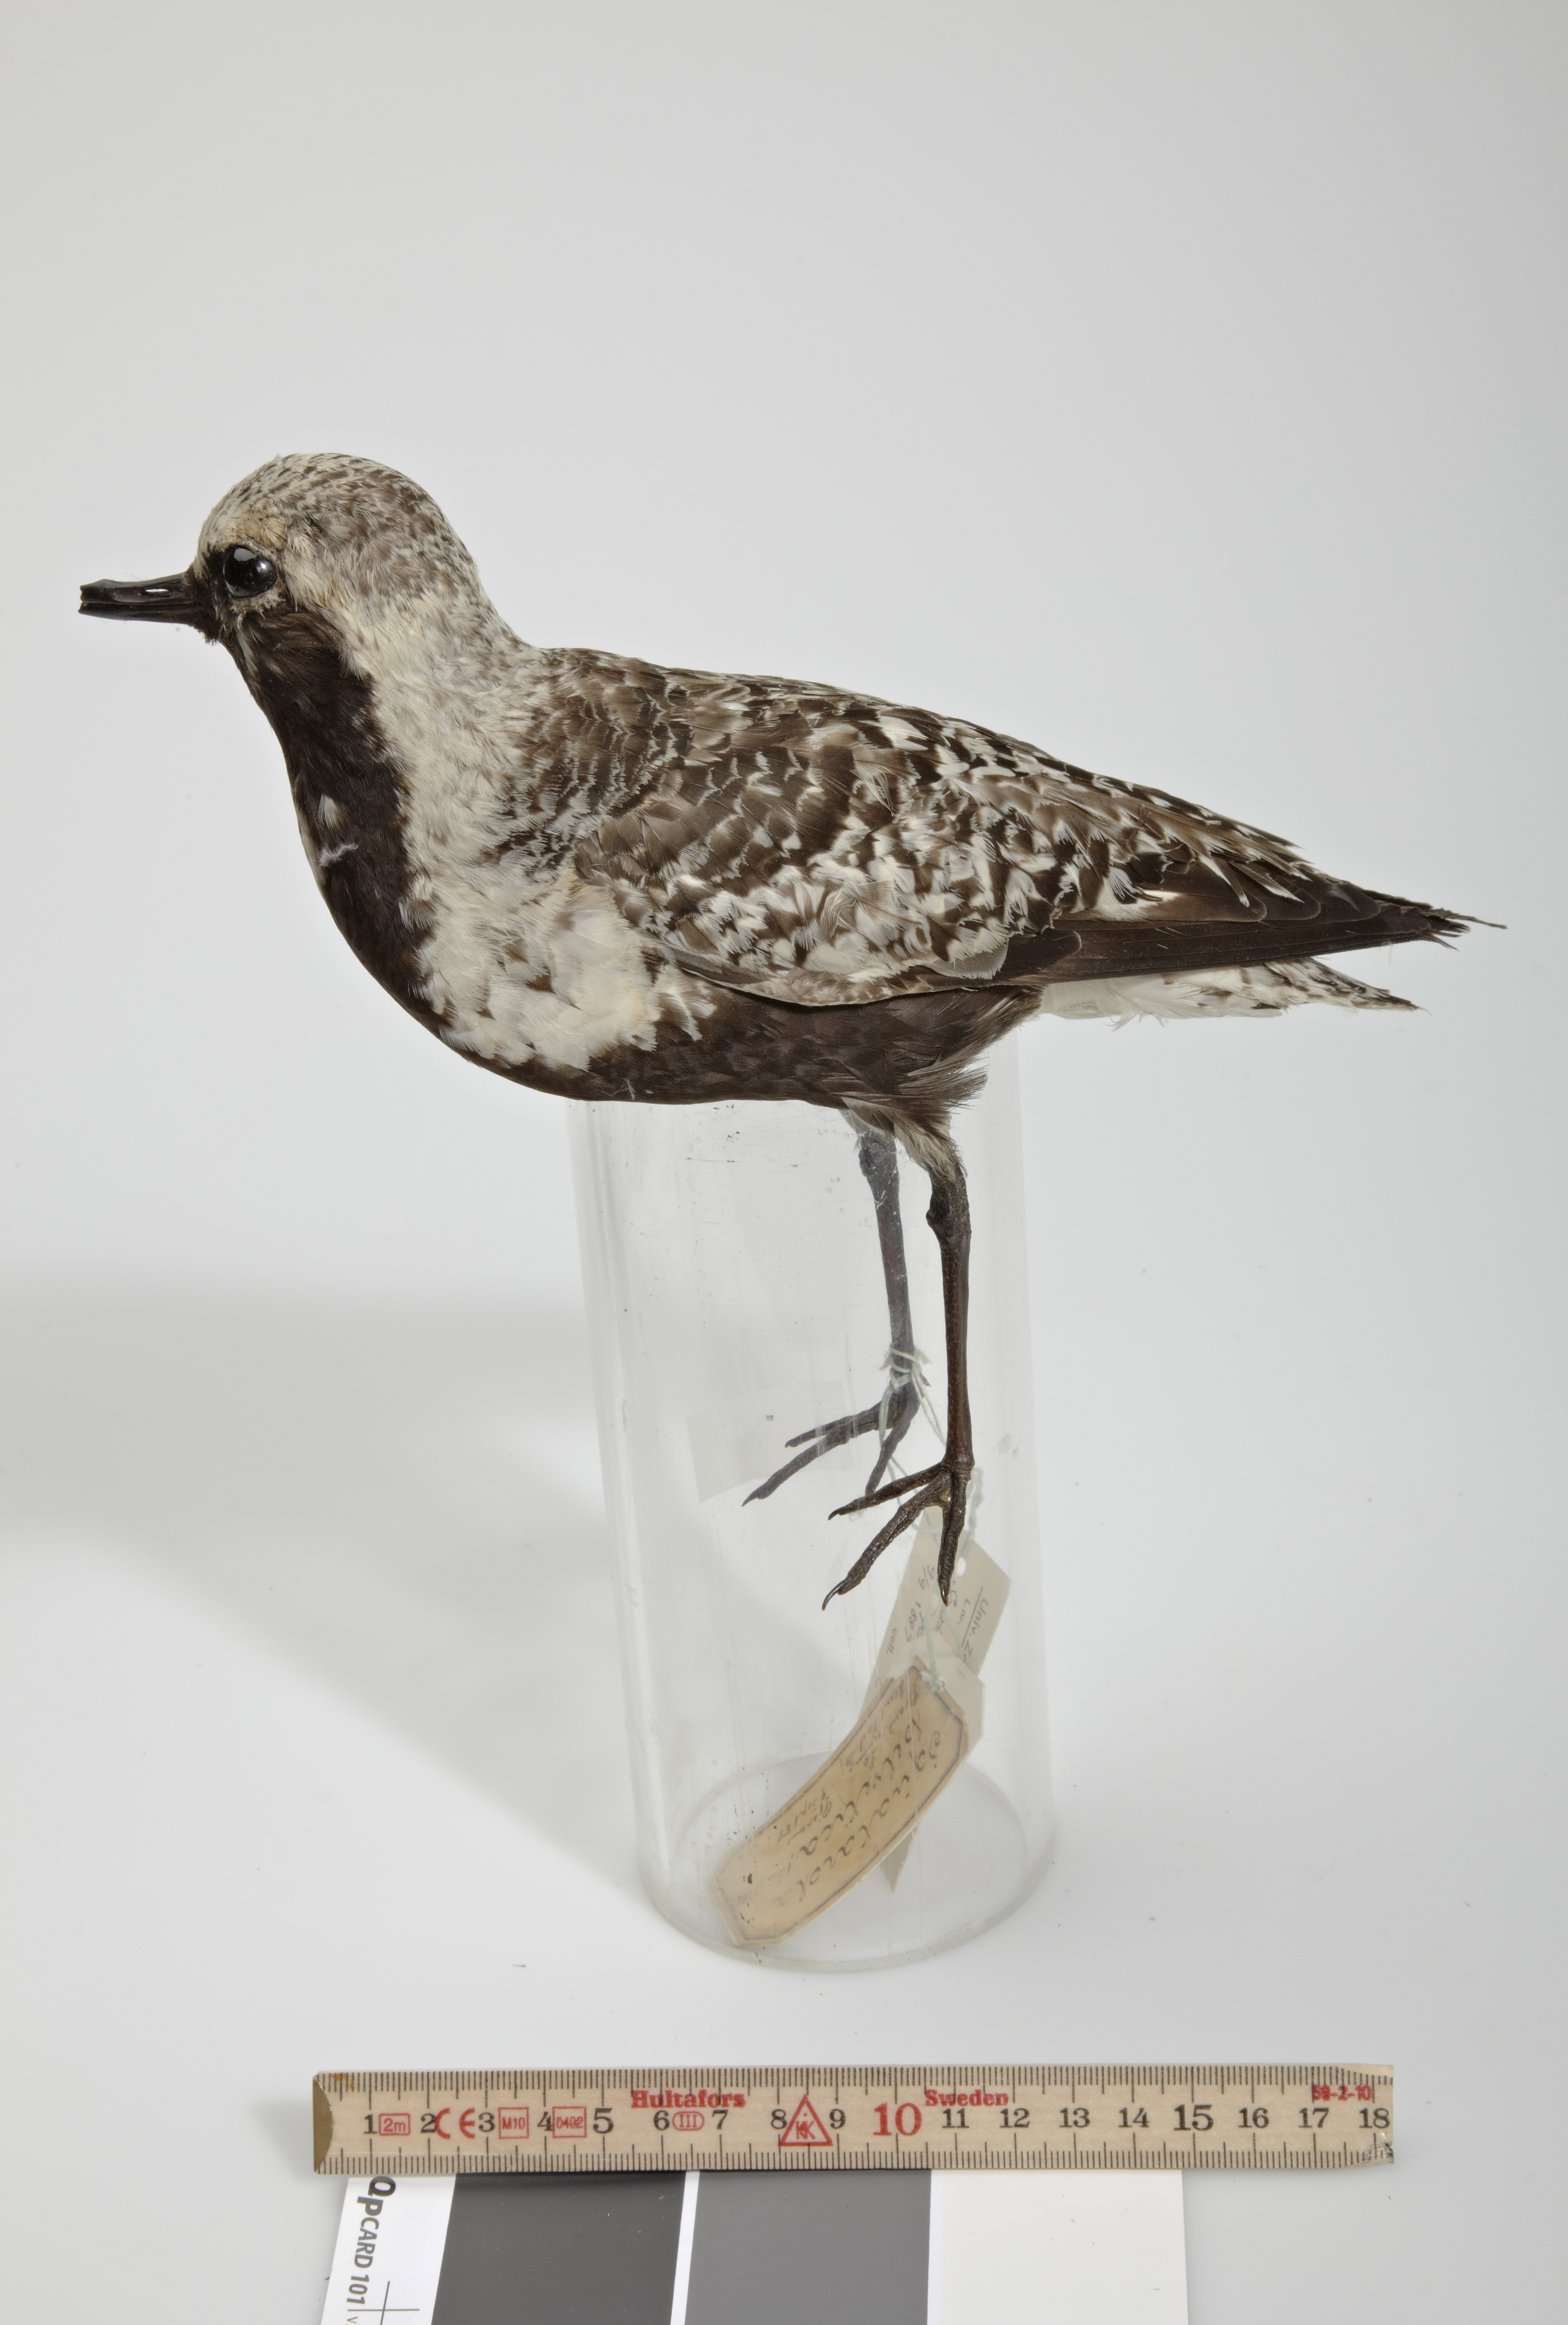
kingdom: Animalia
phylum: Chordata
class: Aves
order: Charadriiformes
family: Charadriidae
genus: Pluvialis
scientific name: Pluvialis squatarola
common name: Grey plover
